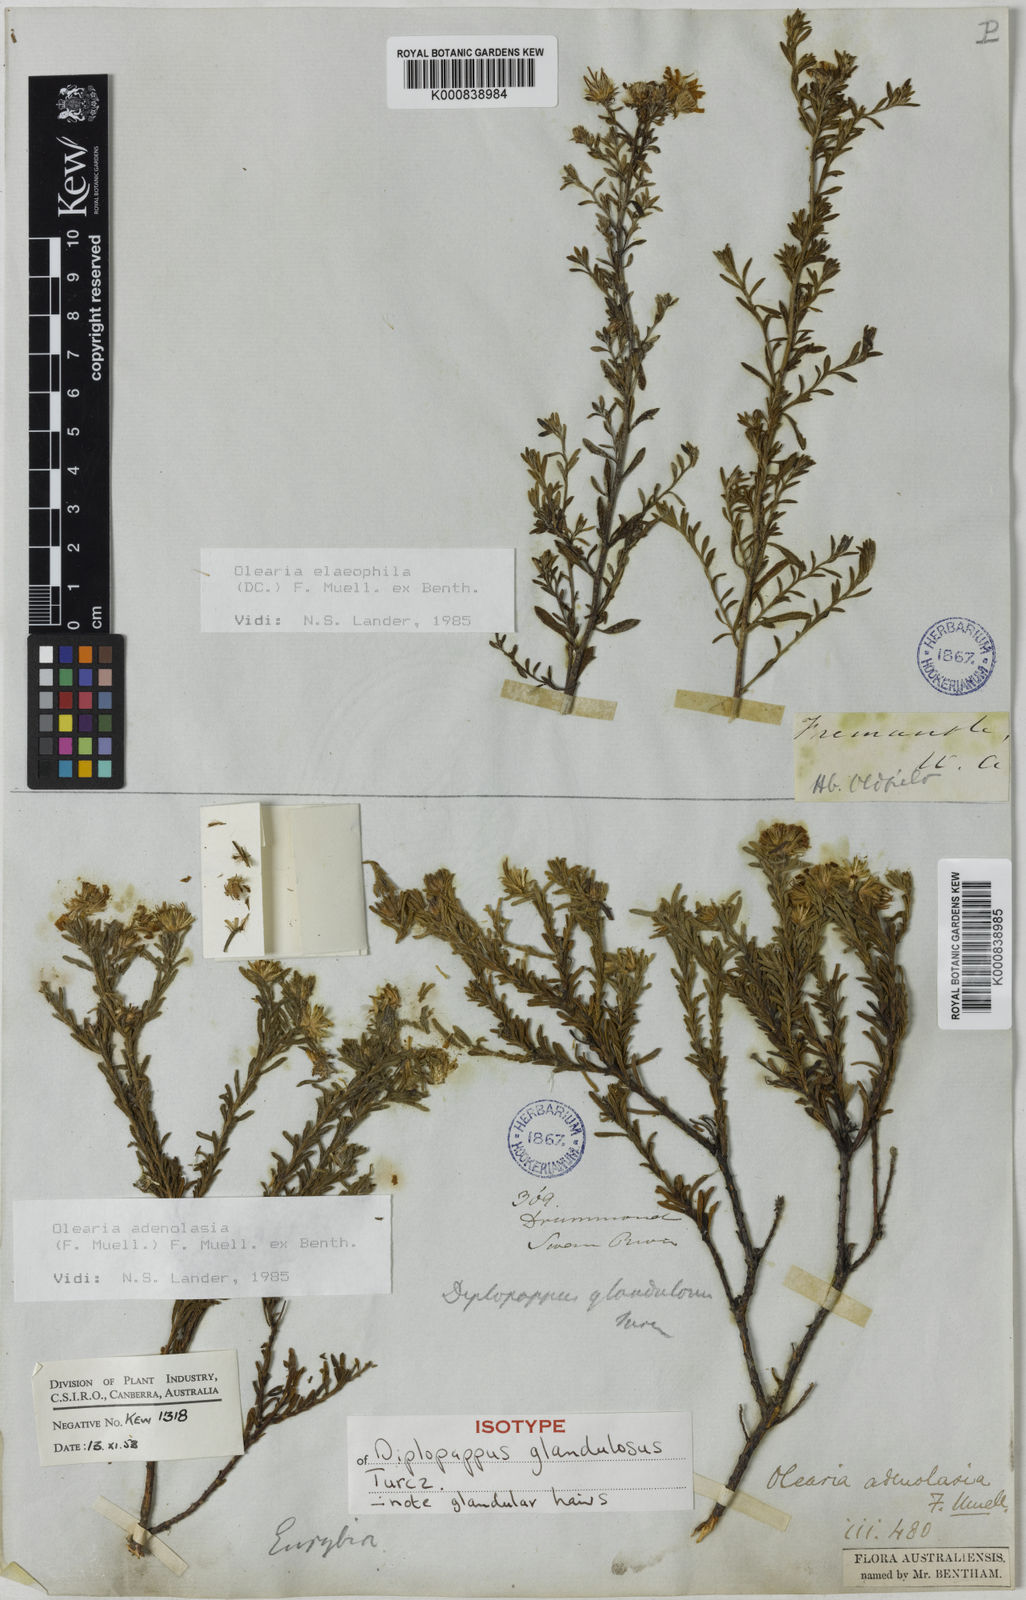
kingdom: Plantae
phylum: Tracheophyta
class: Magnoliopsida
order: Asterales
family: Asteraceae
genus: Olearia
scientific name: Olearia adenolasia
